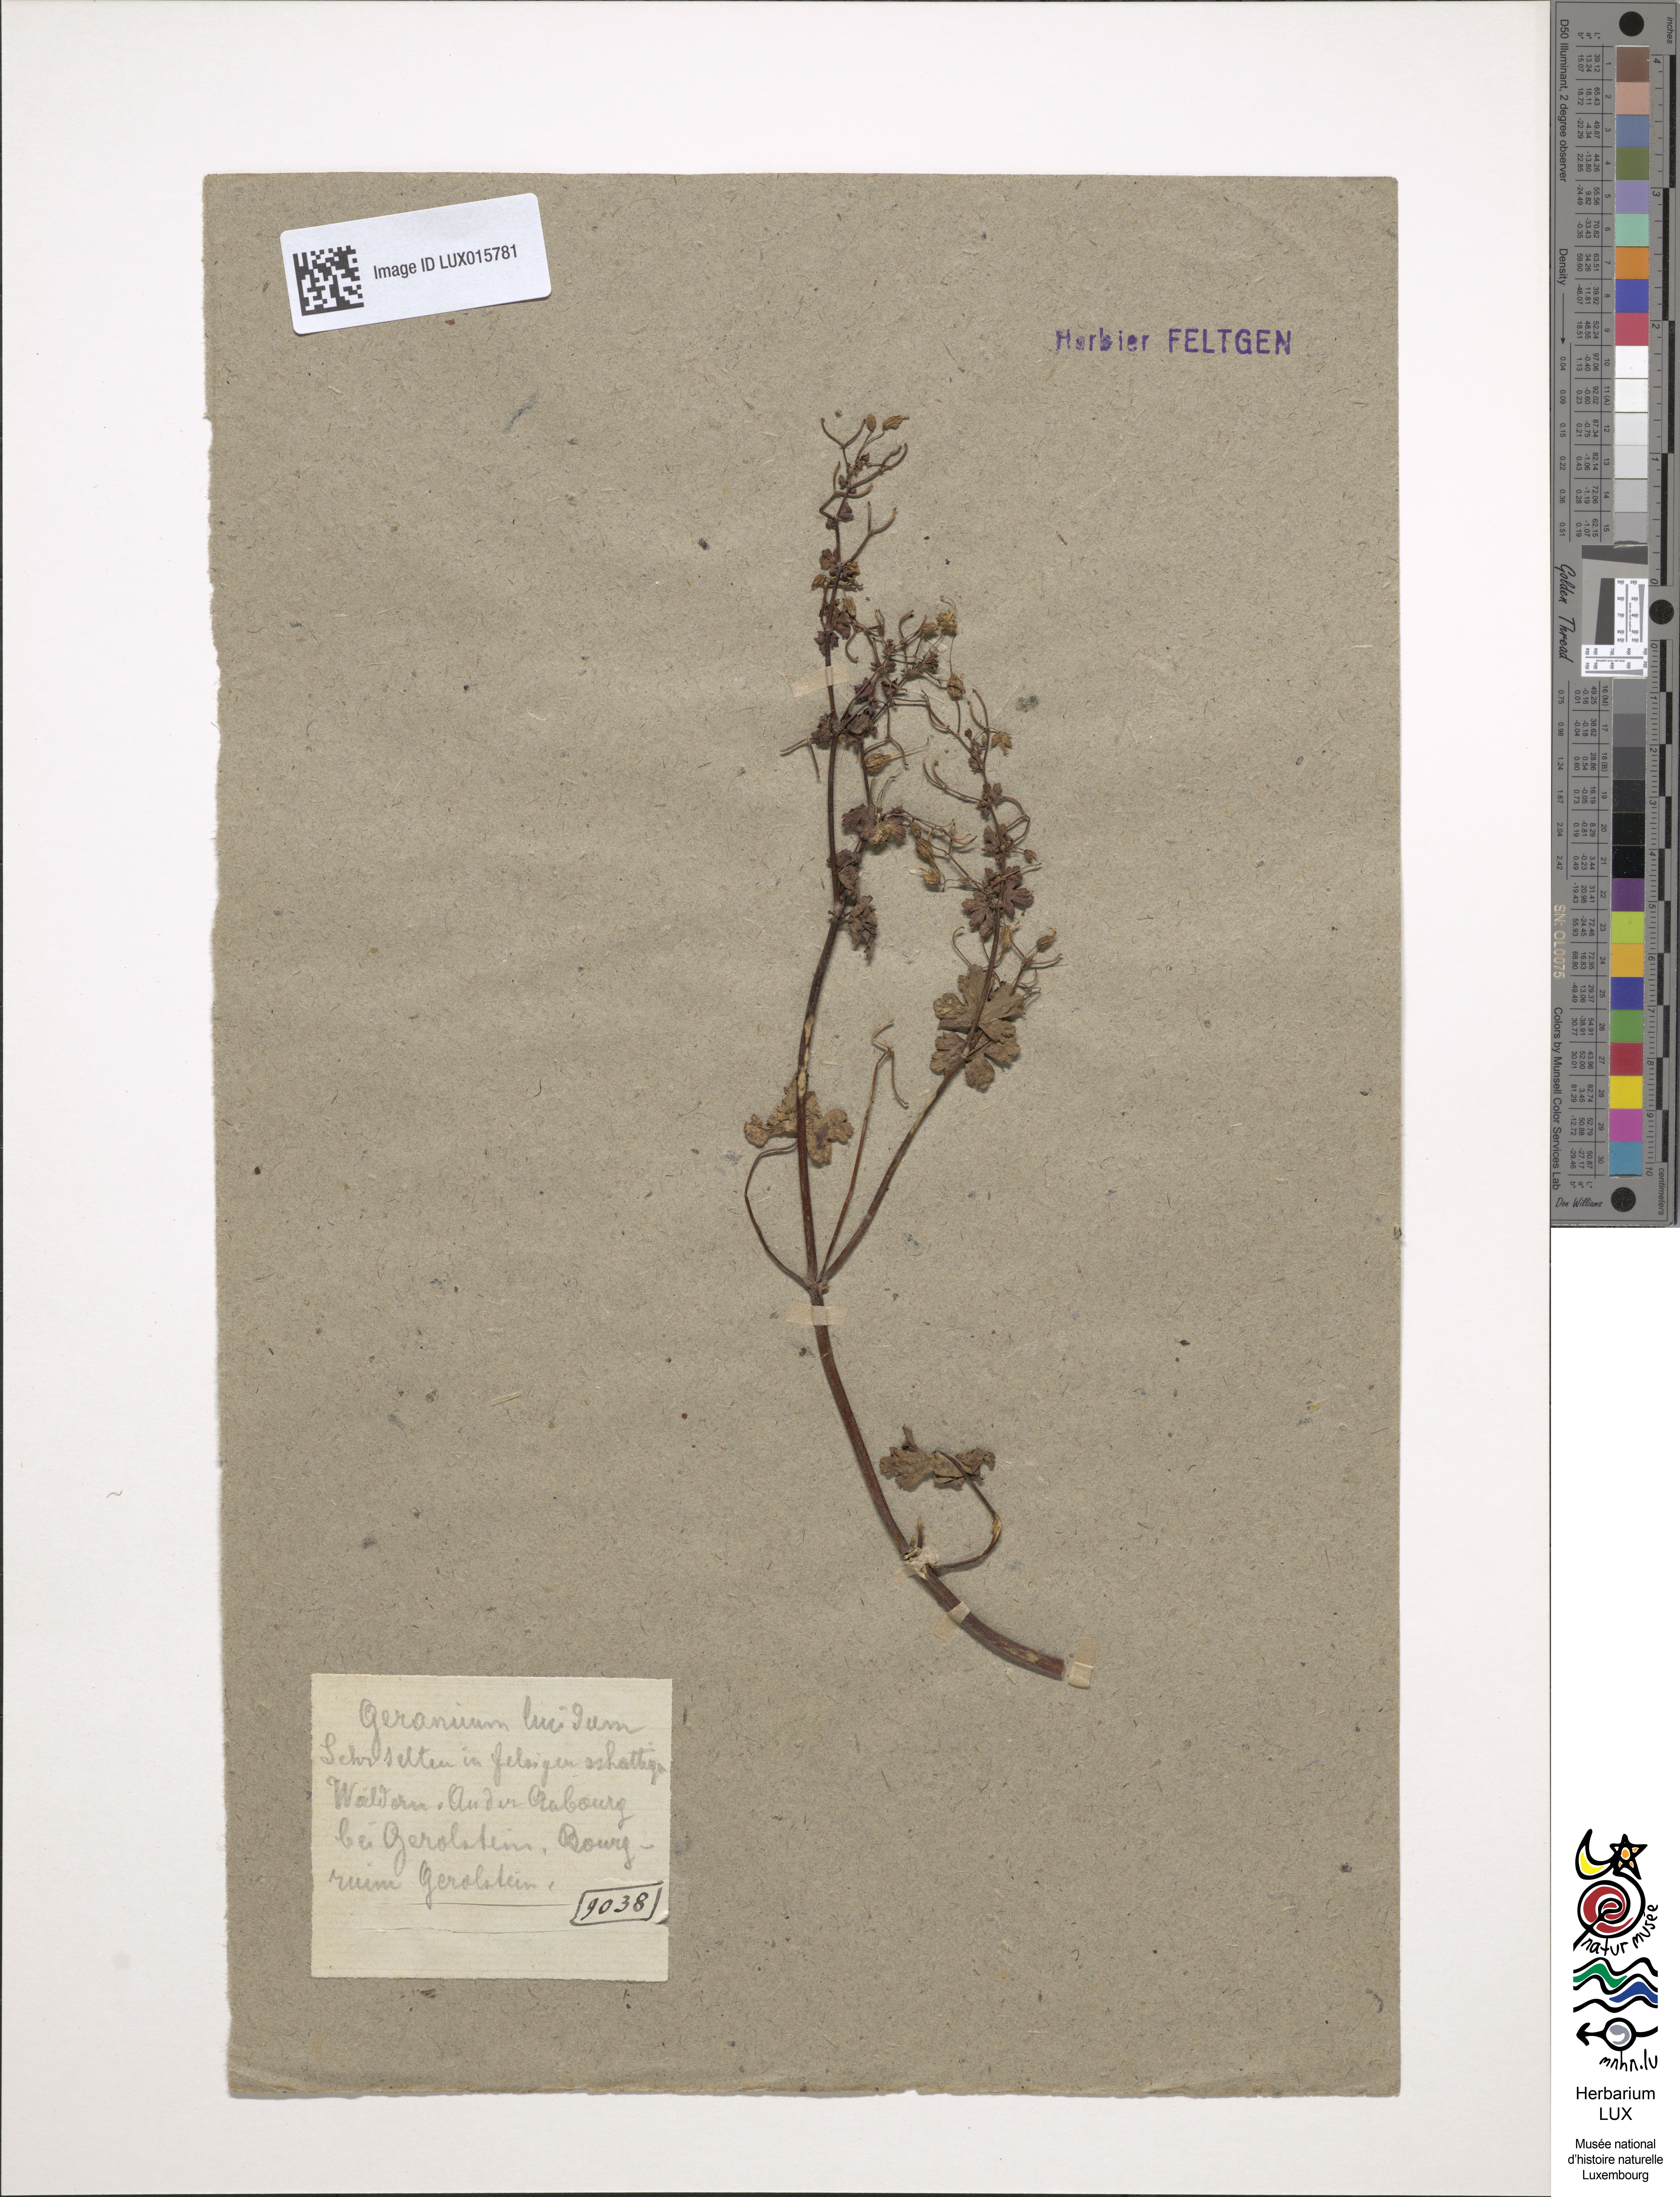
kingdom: Plantae
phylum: Tracheophyta
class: Magnoliopsida
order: Geraniales
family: Geraniaceae
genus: Geranium
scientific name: Geranium lucidum
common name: Shining crane's-bill
